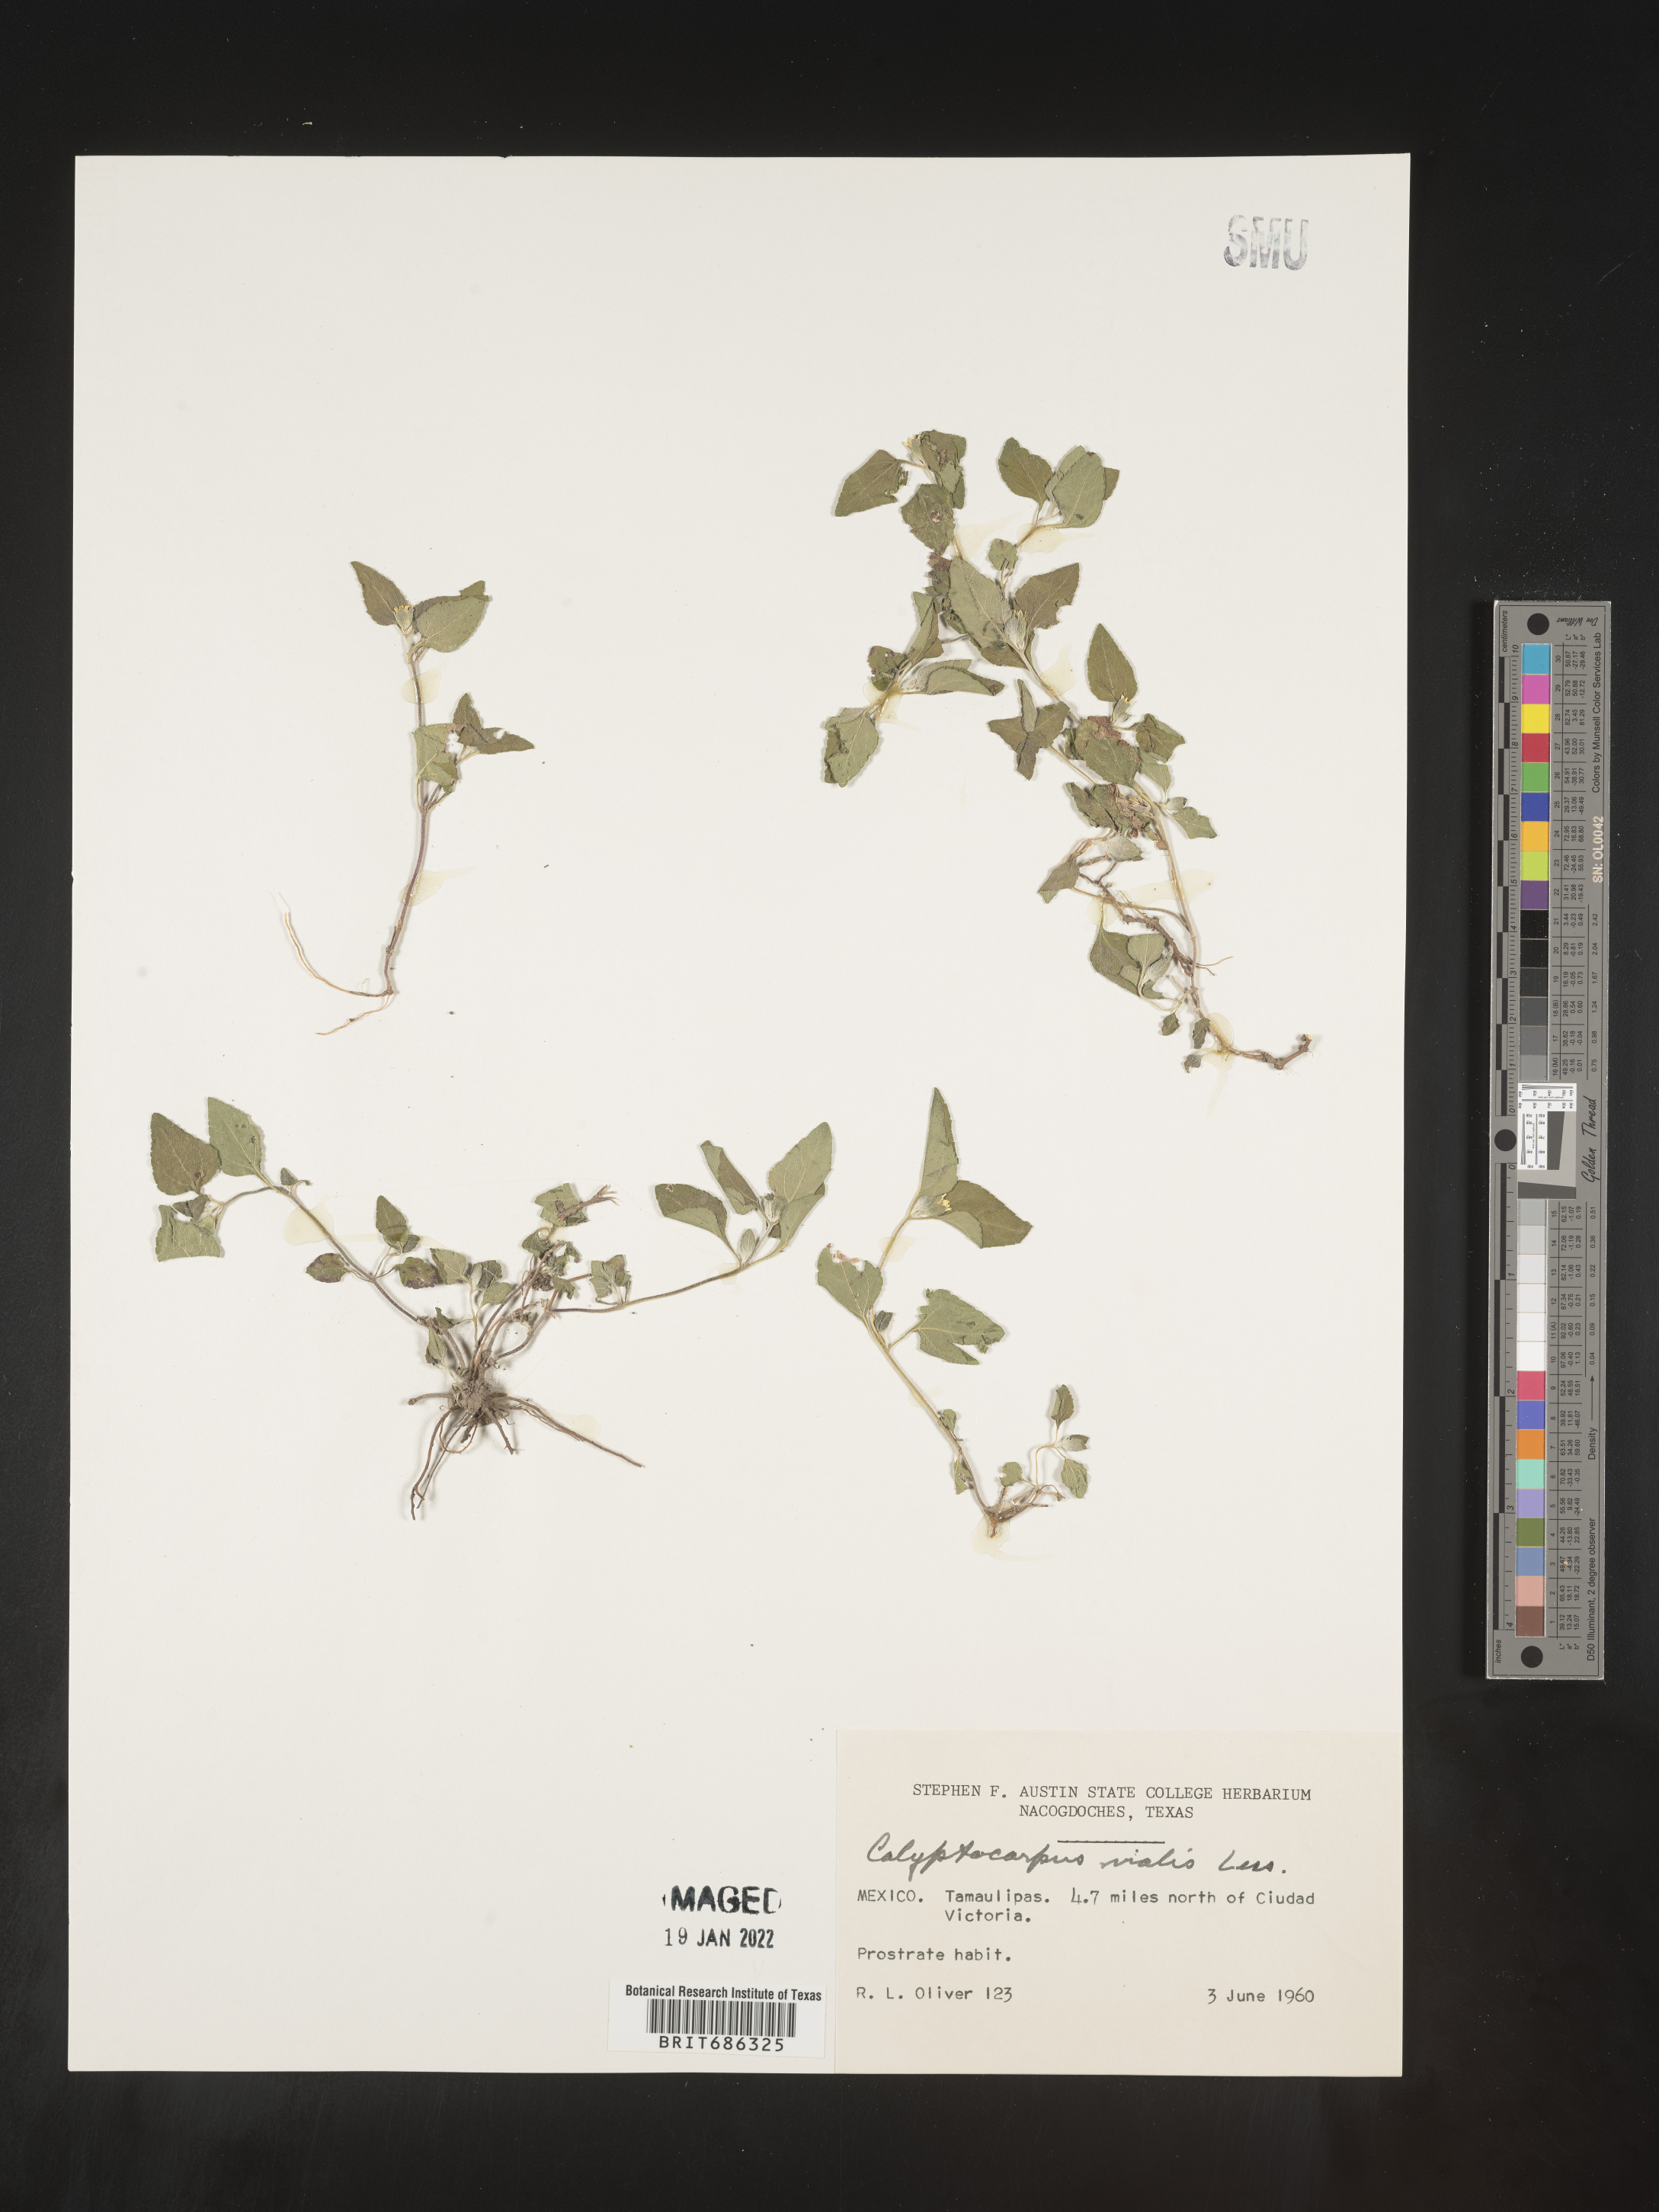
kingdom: Plantae
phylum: Tracheophyta
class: Magnoliopsida
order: Asterales
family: Asteraceae
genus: Calyptocarpus
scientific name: Calyptocarpus
